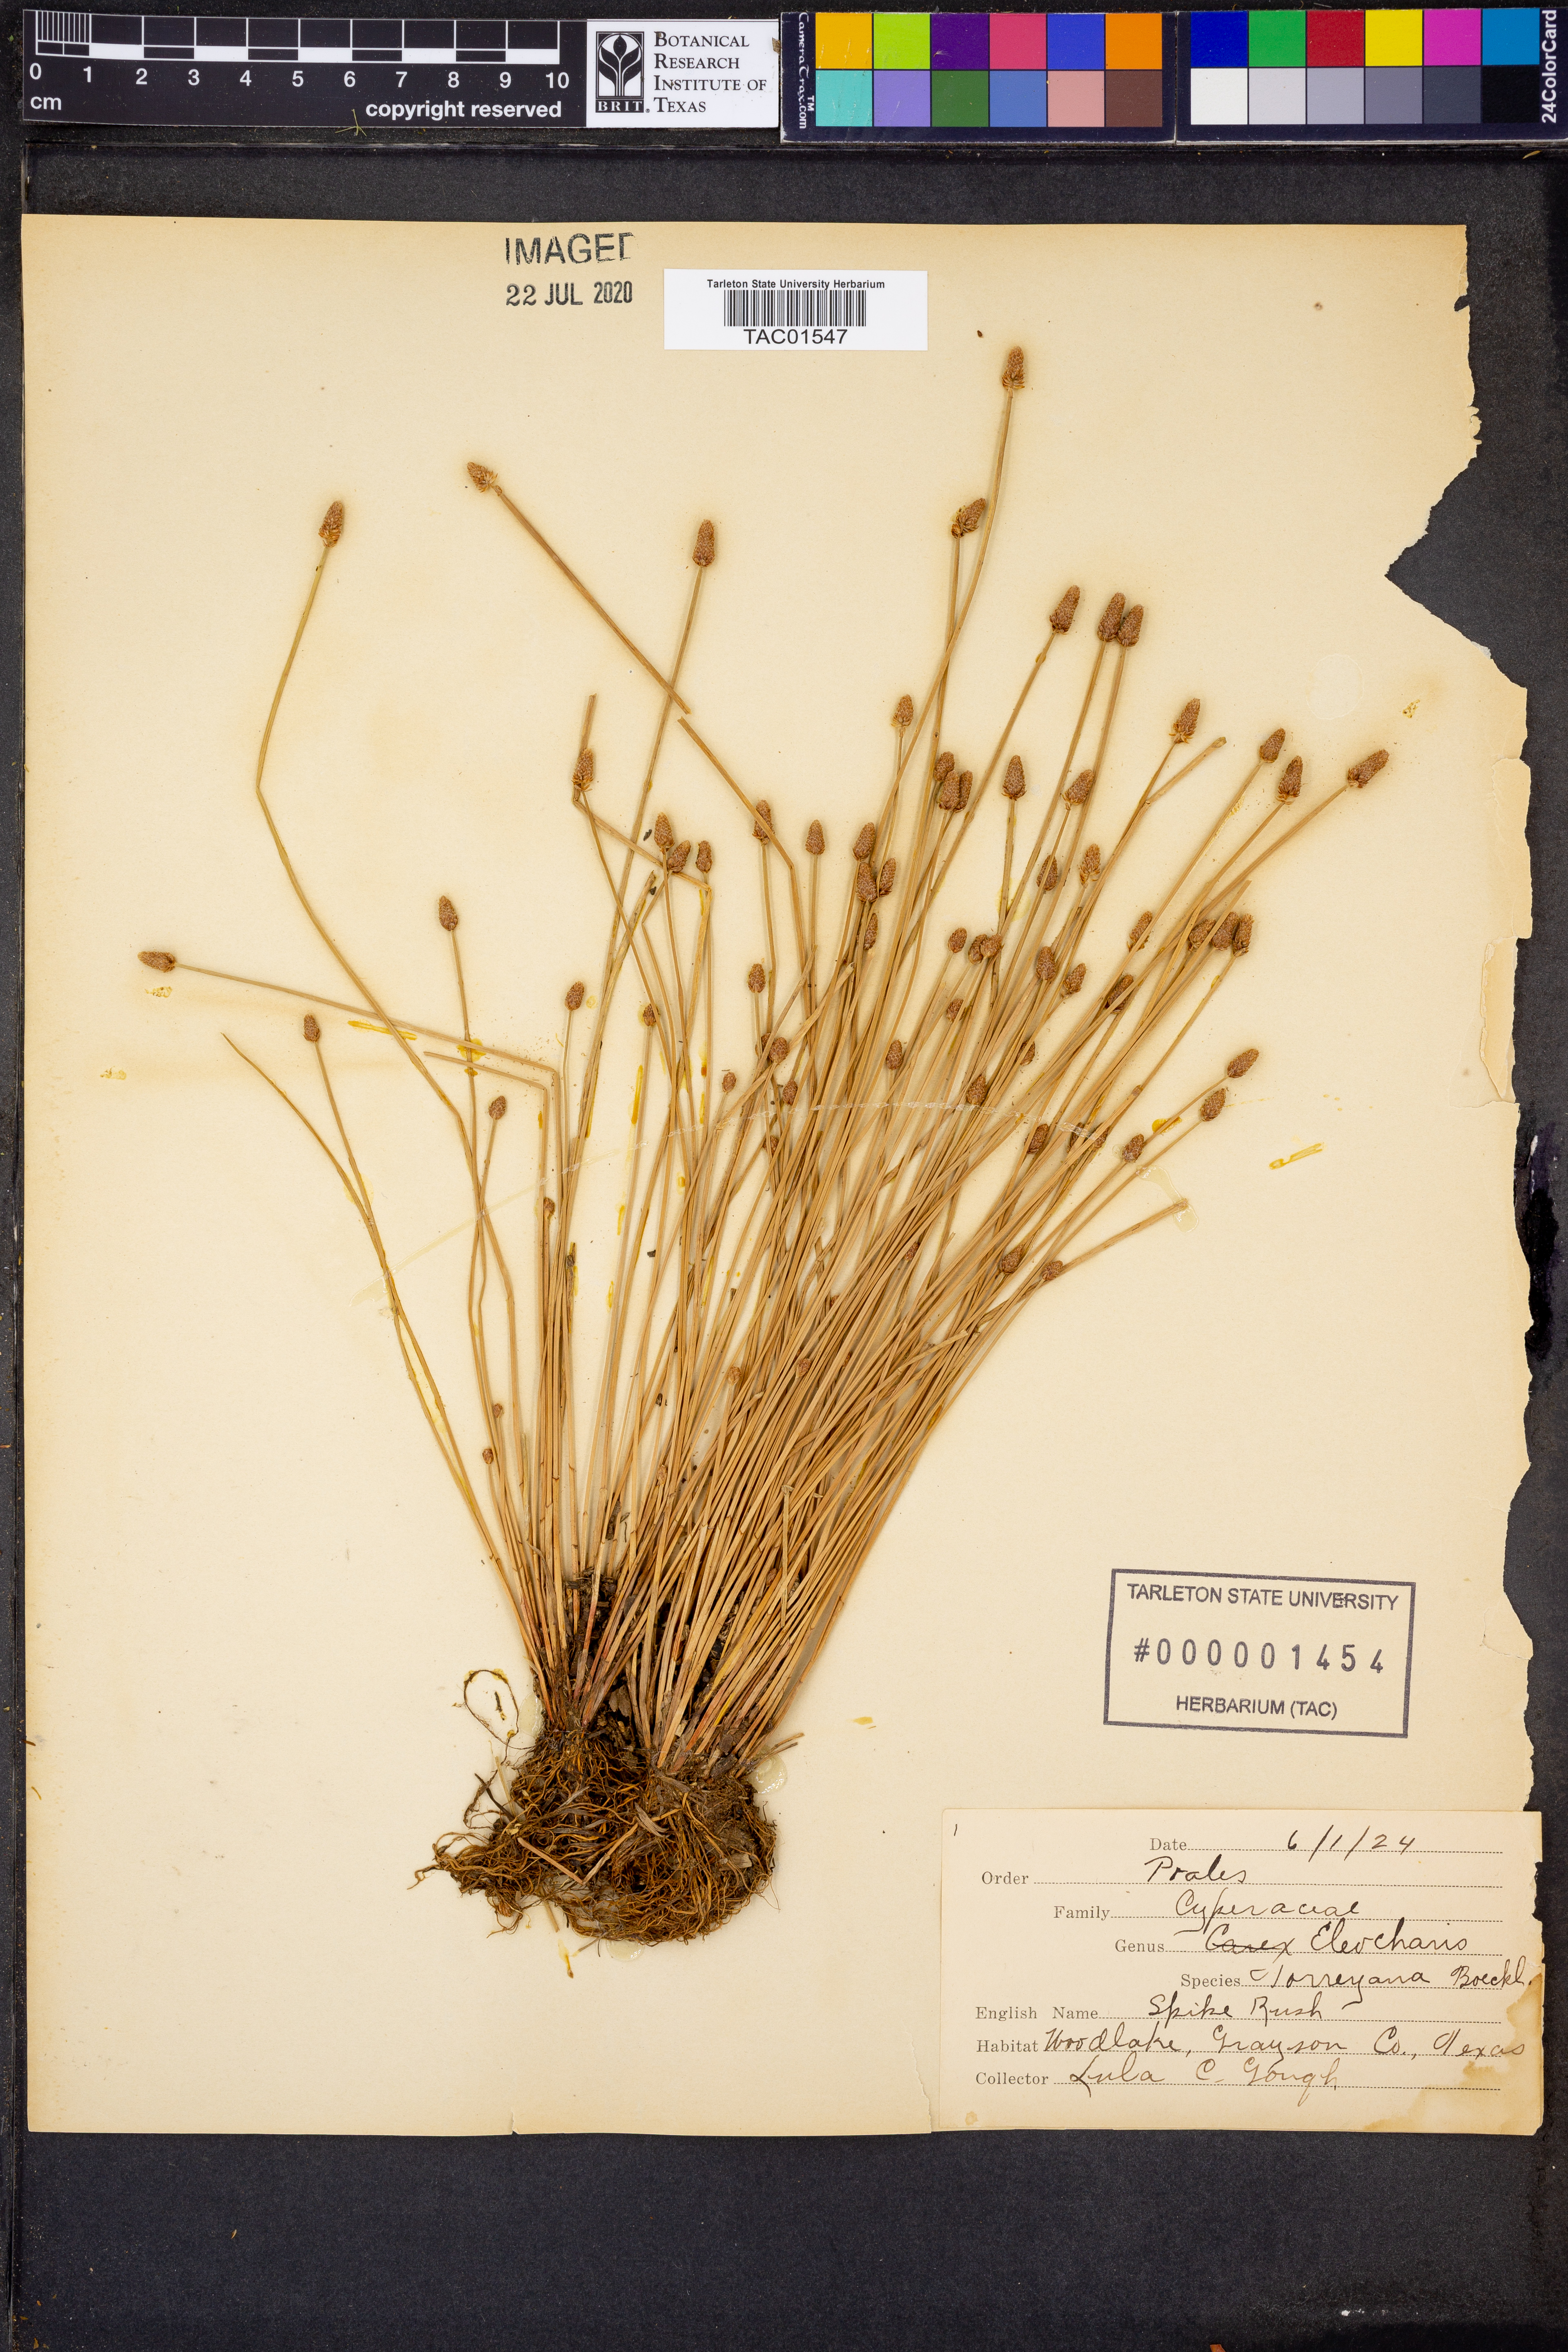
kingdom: Plantae
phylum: Tracheophyta
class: Liliopsida
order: Poales
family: Cyperaceae
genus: Eleocharis
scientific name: Eleocharis microcarpa
